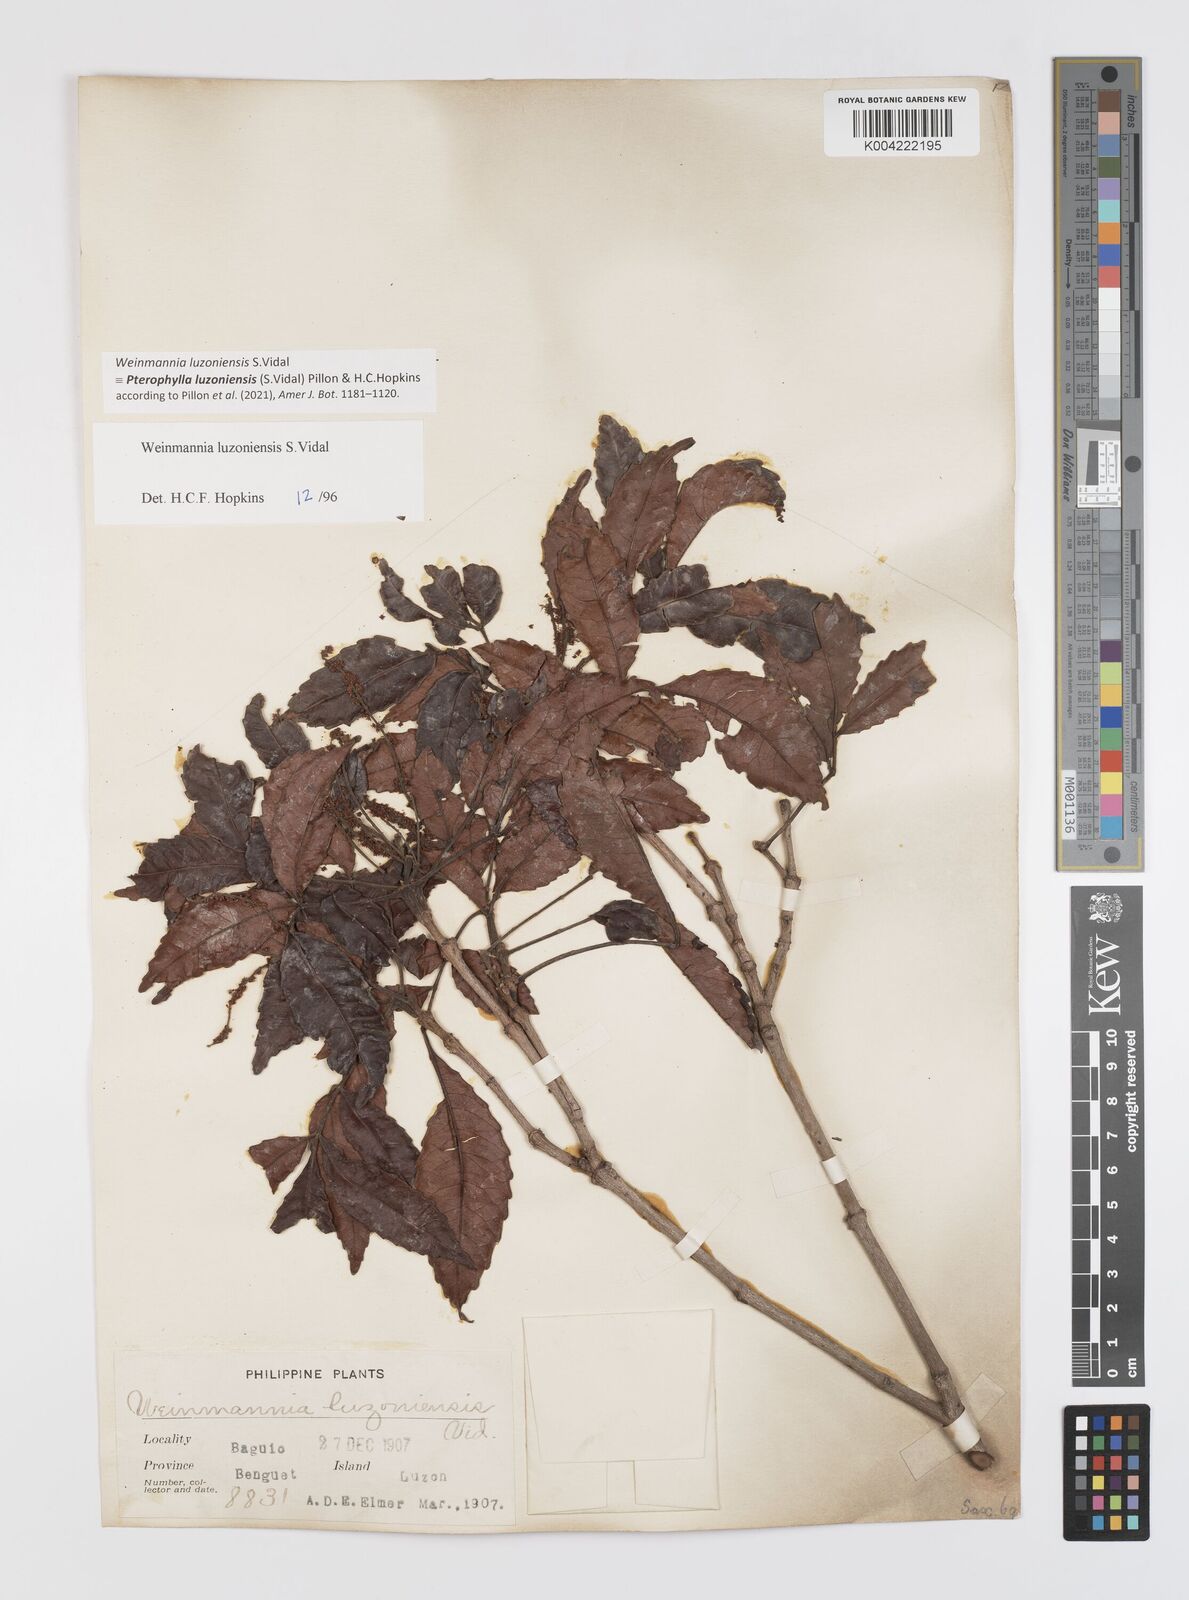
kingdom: Plantae
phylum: Tracheophyta
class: Magnoliopsida
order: Oxalidales
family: Cunoniaceae
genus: Pterophylla
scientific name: Pterophylla luzoniensis
